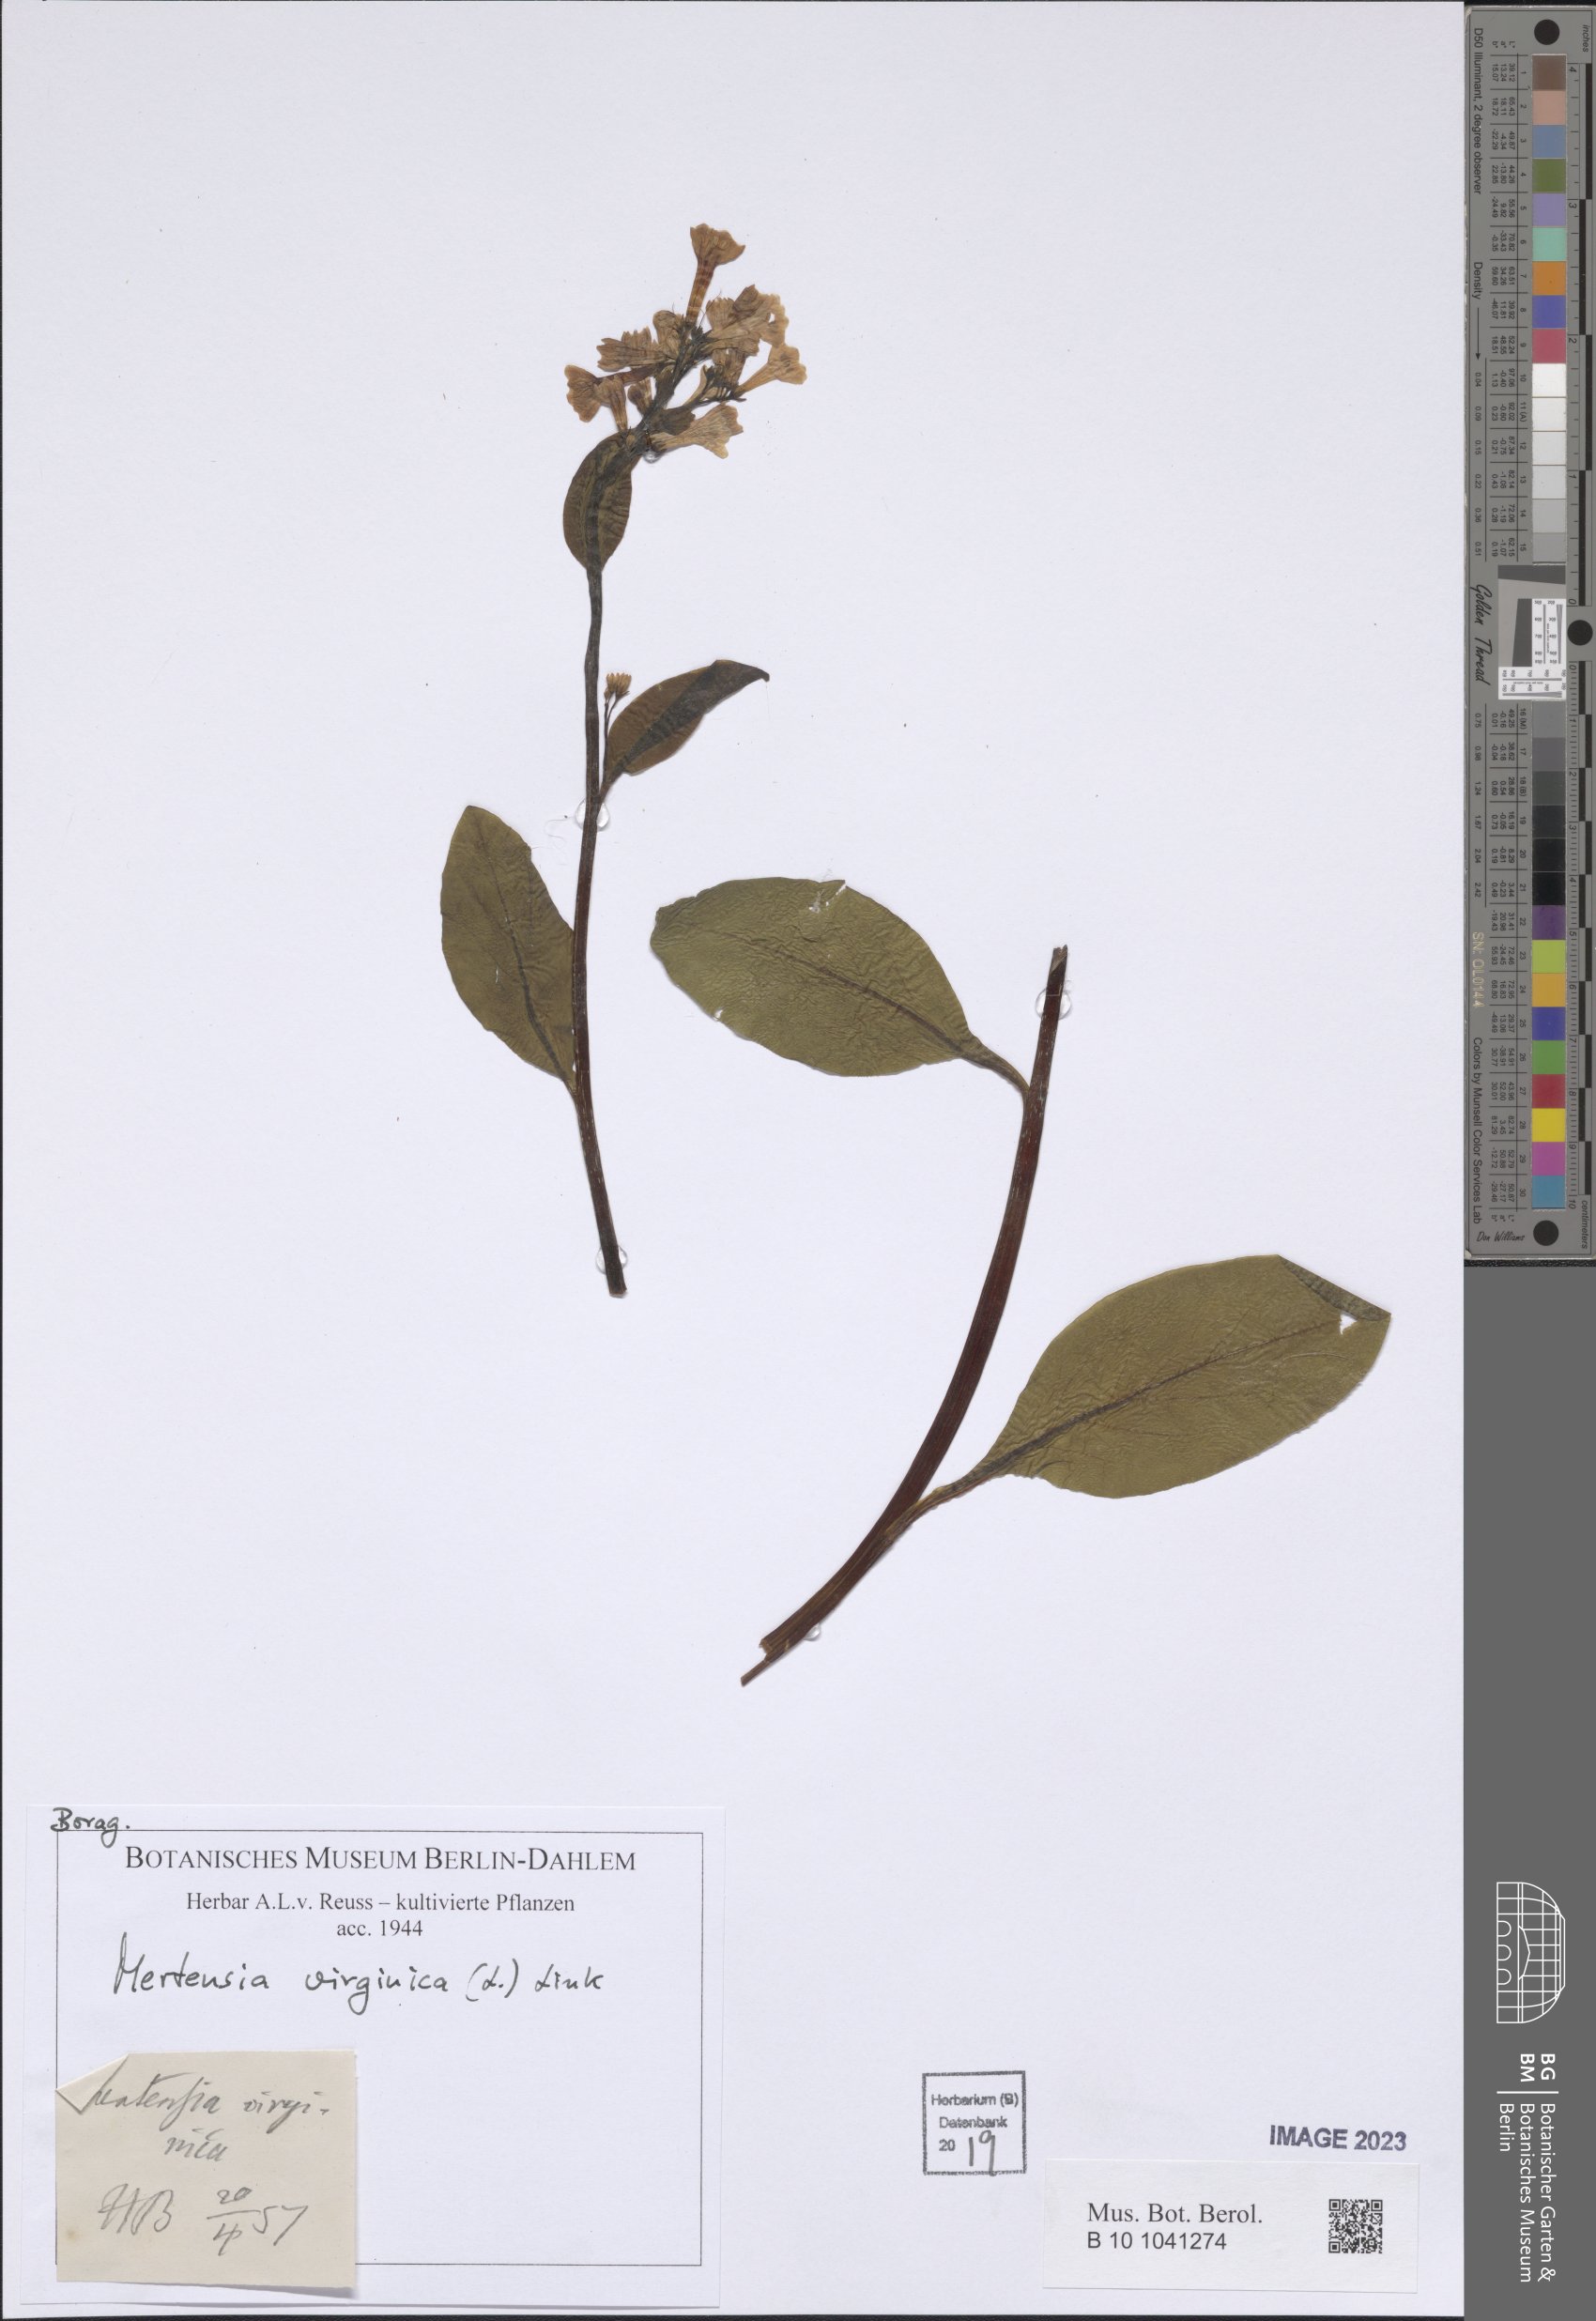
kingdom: Plantae
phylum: Tracheophyta
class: Magnoliopsida
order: Boraginales
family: Boraginaceae
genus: Mertensia
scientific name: Mertensia virginica
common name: Virginia bluebells
